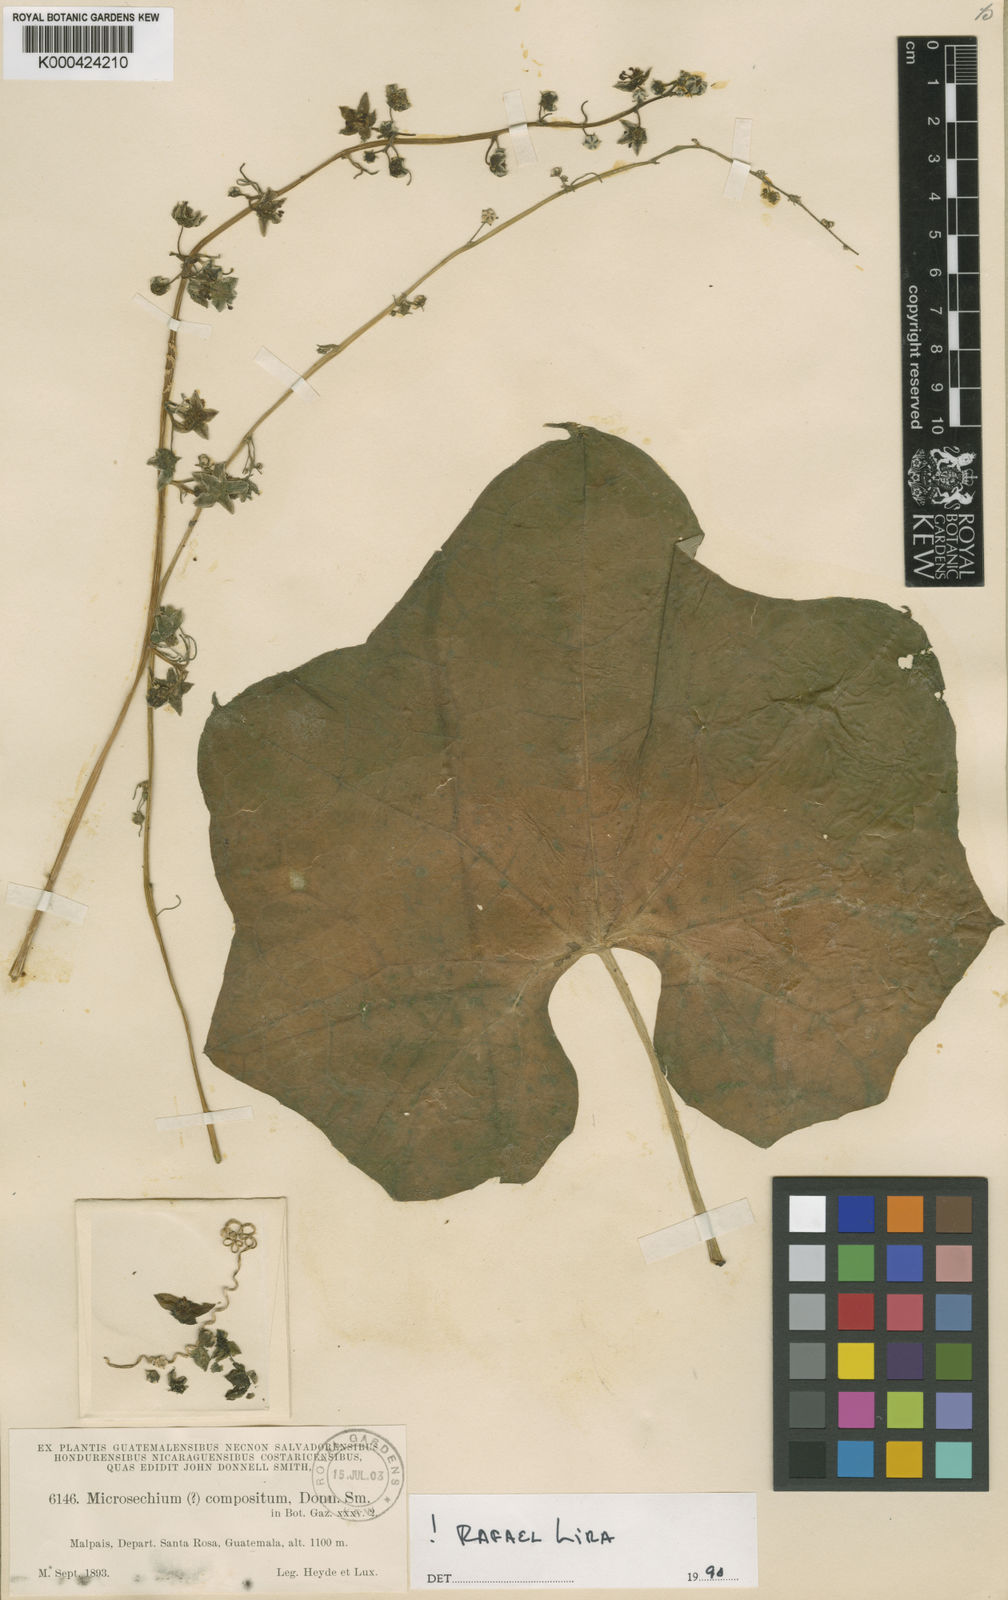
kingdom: Plantae
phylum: Tracheophyta
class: Magnoliopsida
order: Cucurbitales
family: Cucurbitaceae
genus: Sechium
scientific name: Sechium compositum
